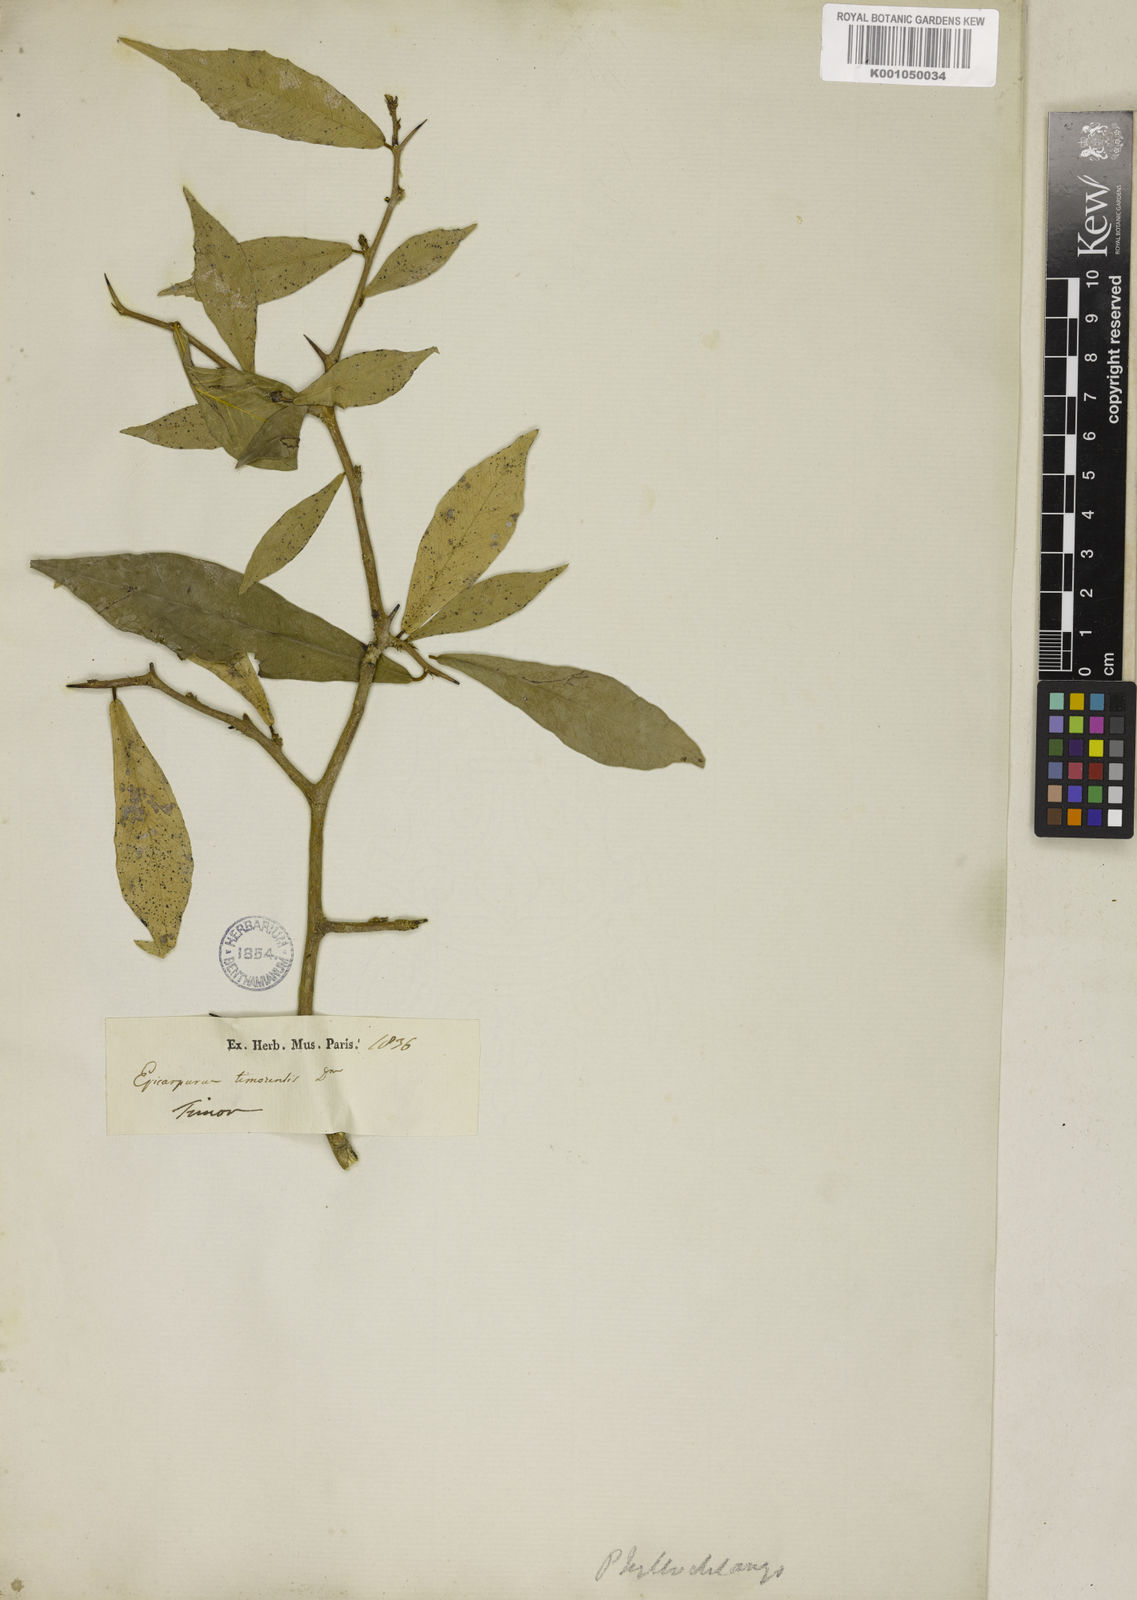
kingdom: Plantae
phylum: Tracheophyta
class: Magnoliopsida
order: Rosales
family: Moraceae
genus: Taxotrophis
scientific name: Taxotrophis taxoides
